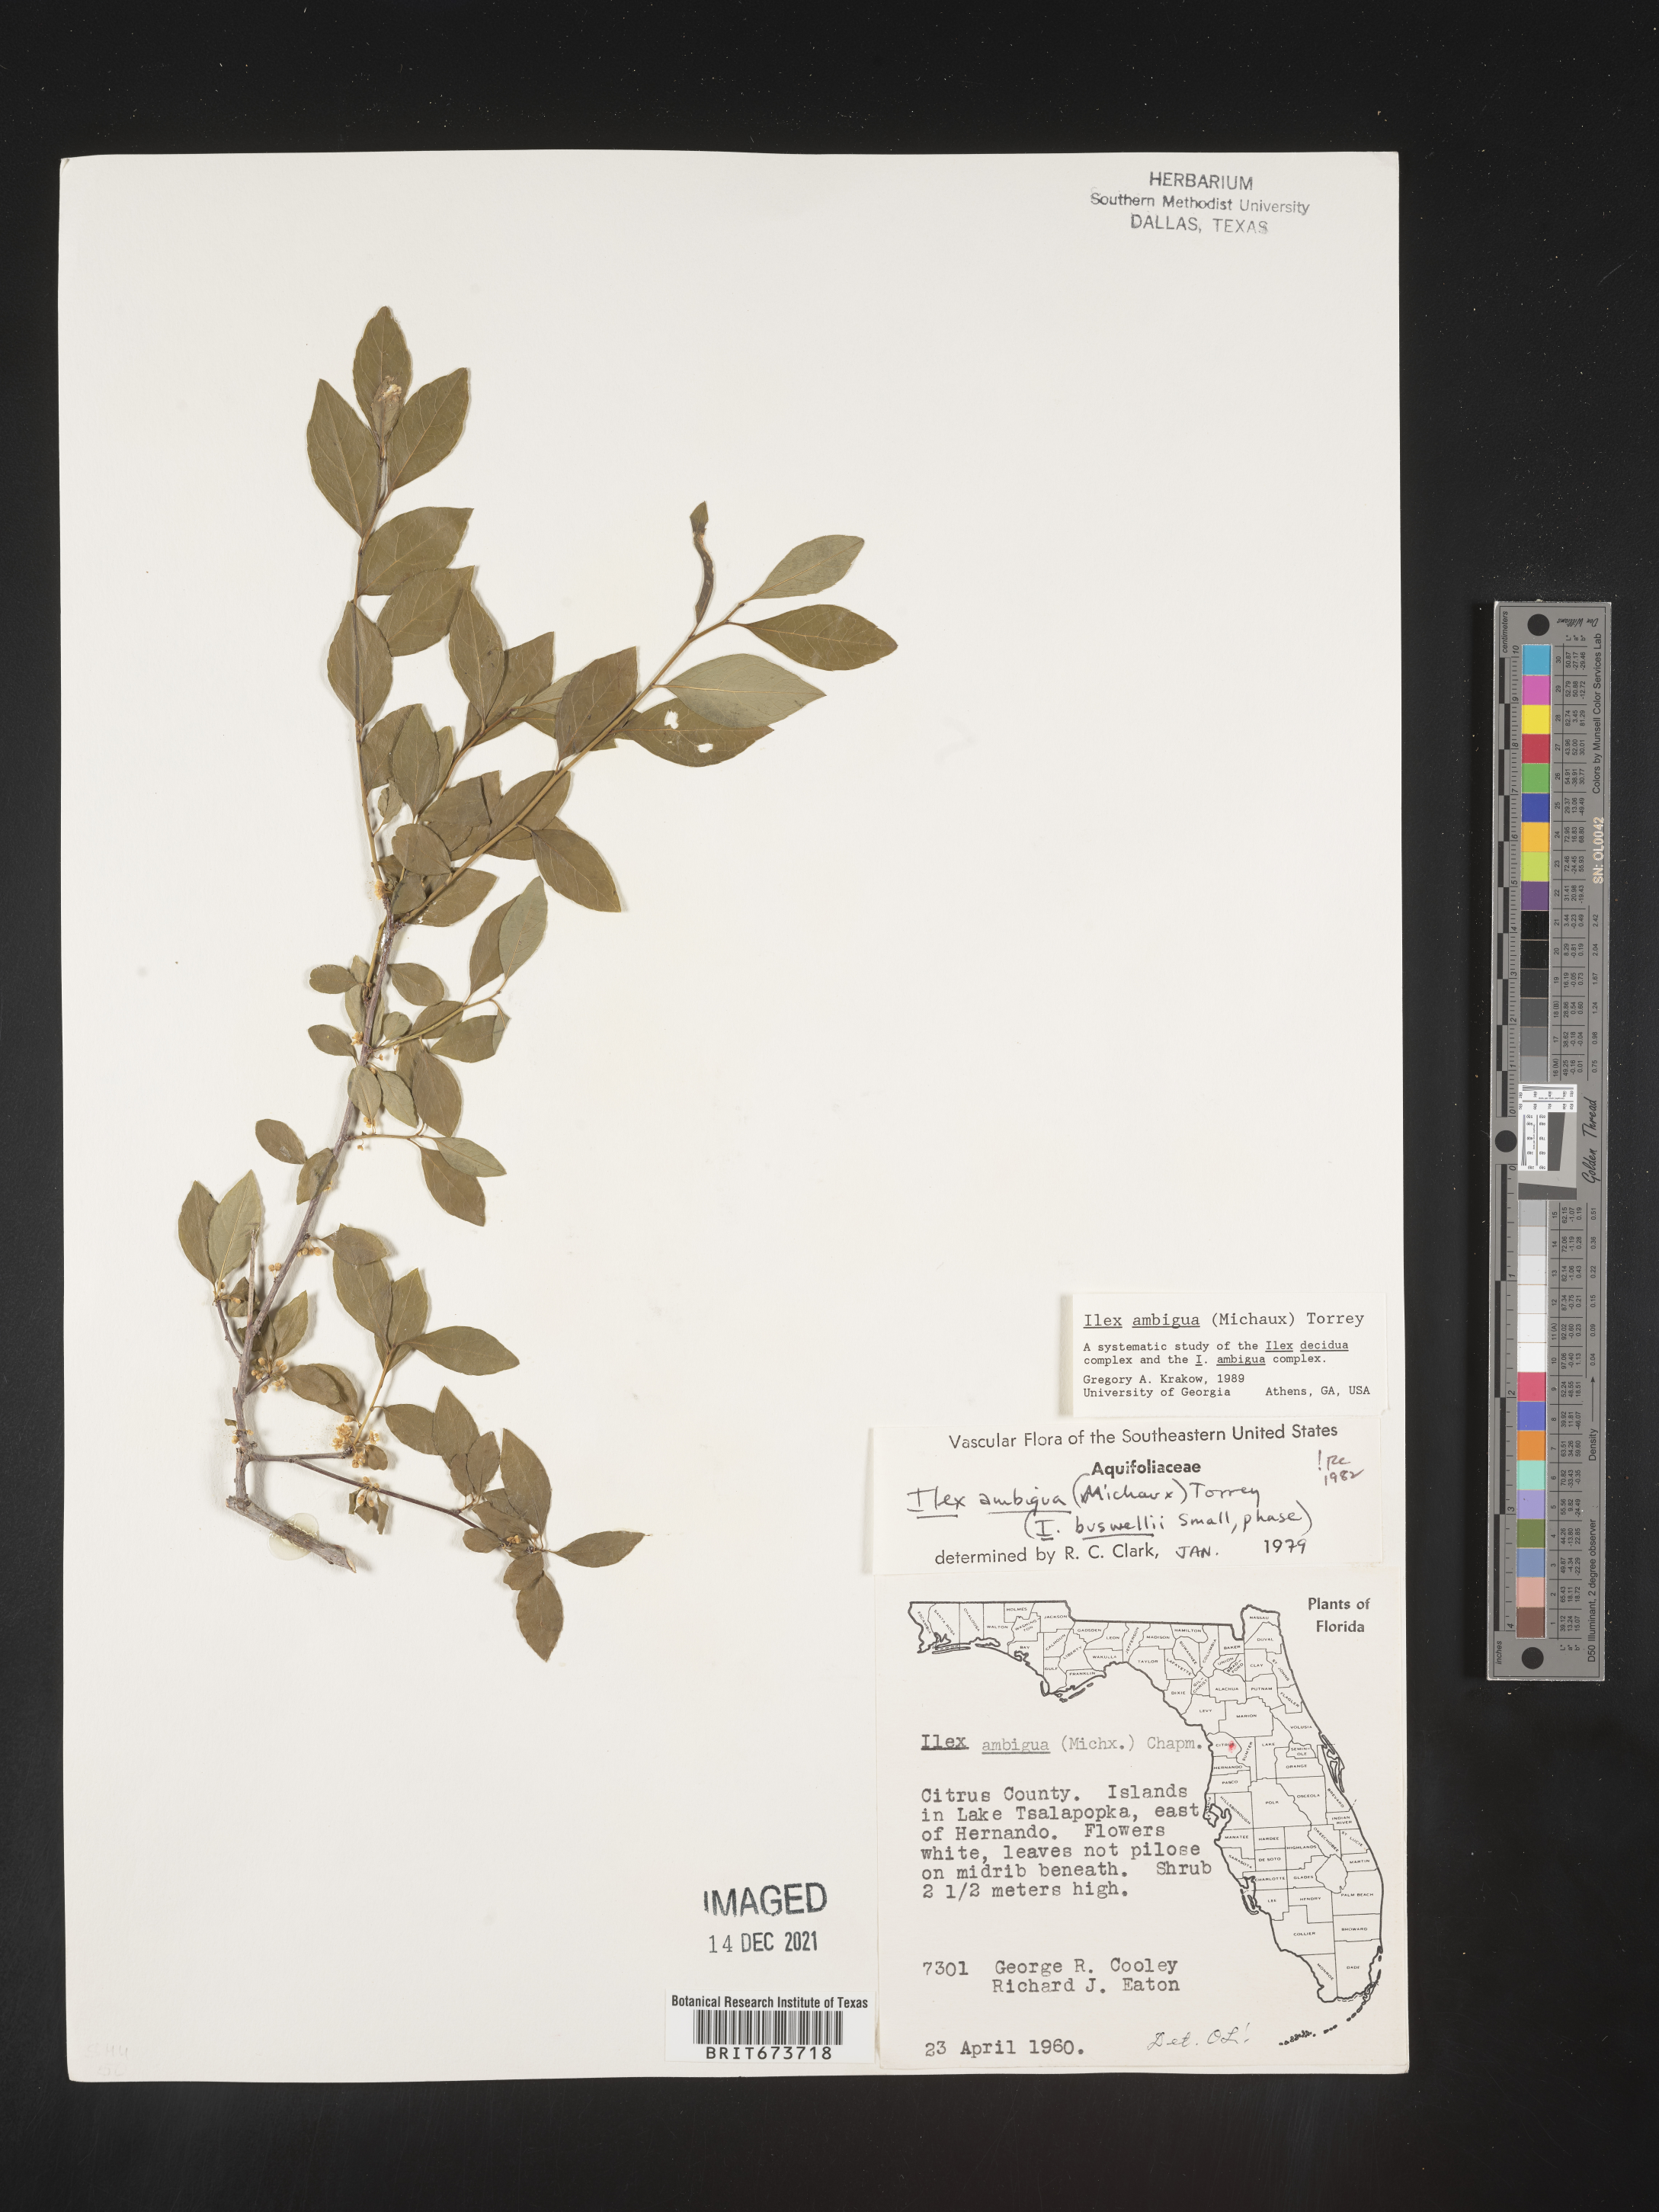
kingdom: Plantae
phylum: Tracheophyta
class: Magnoliopsida
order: Aquifoliales
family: Aquifoliaceae
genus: Ilex
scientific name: Ilex ambigua
